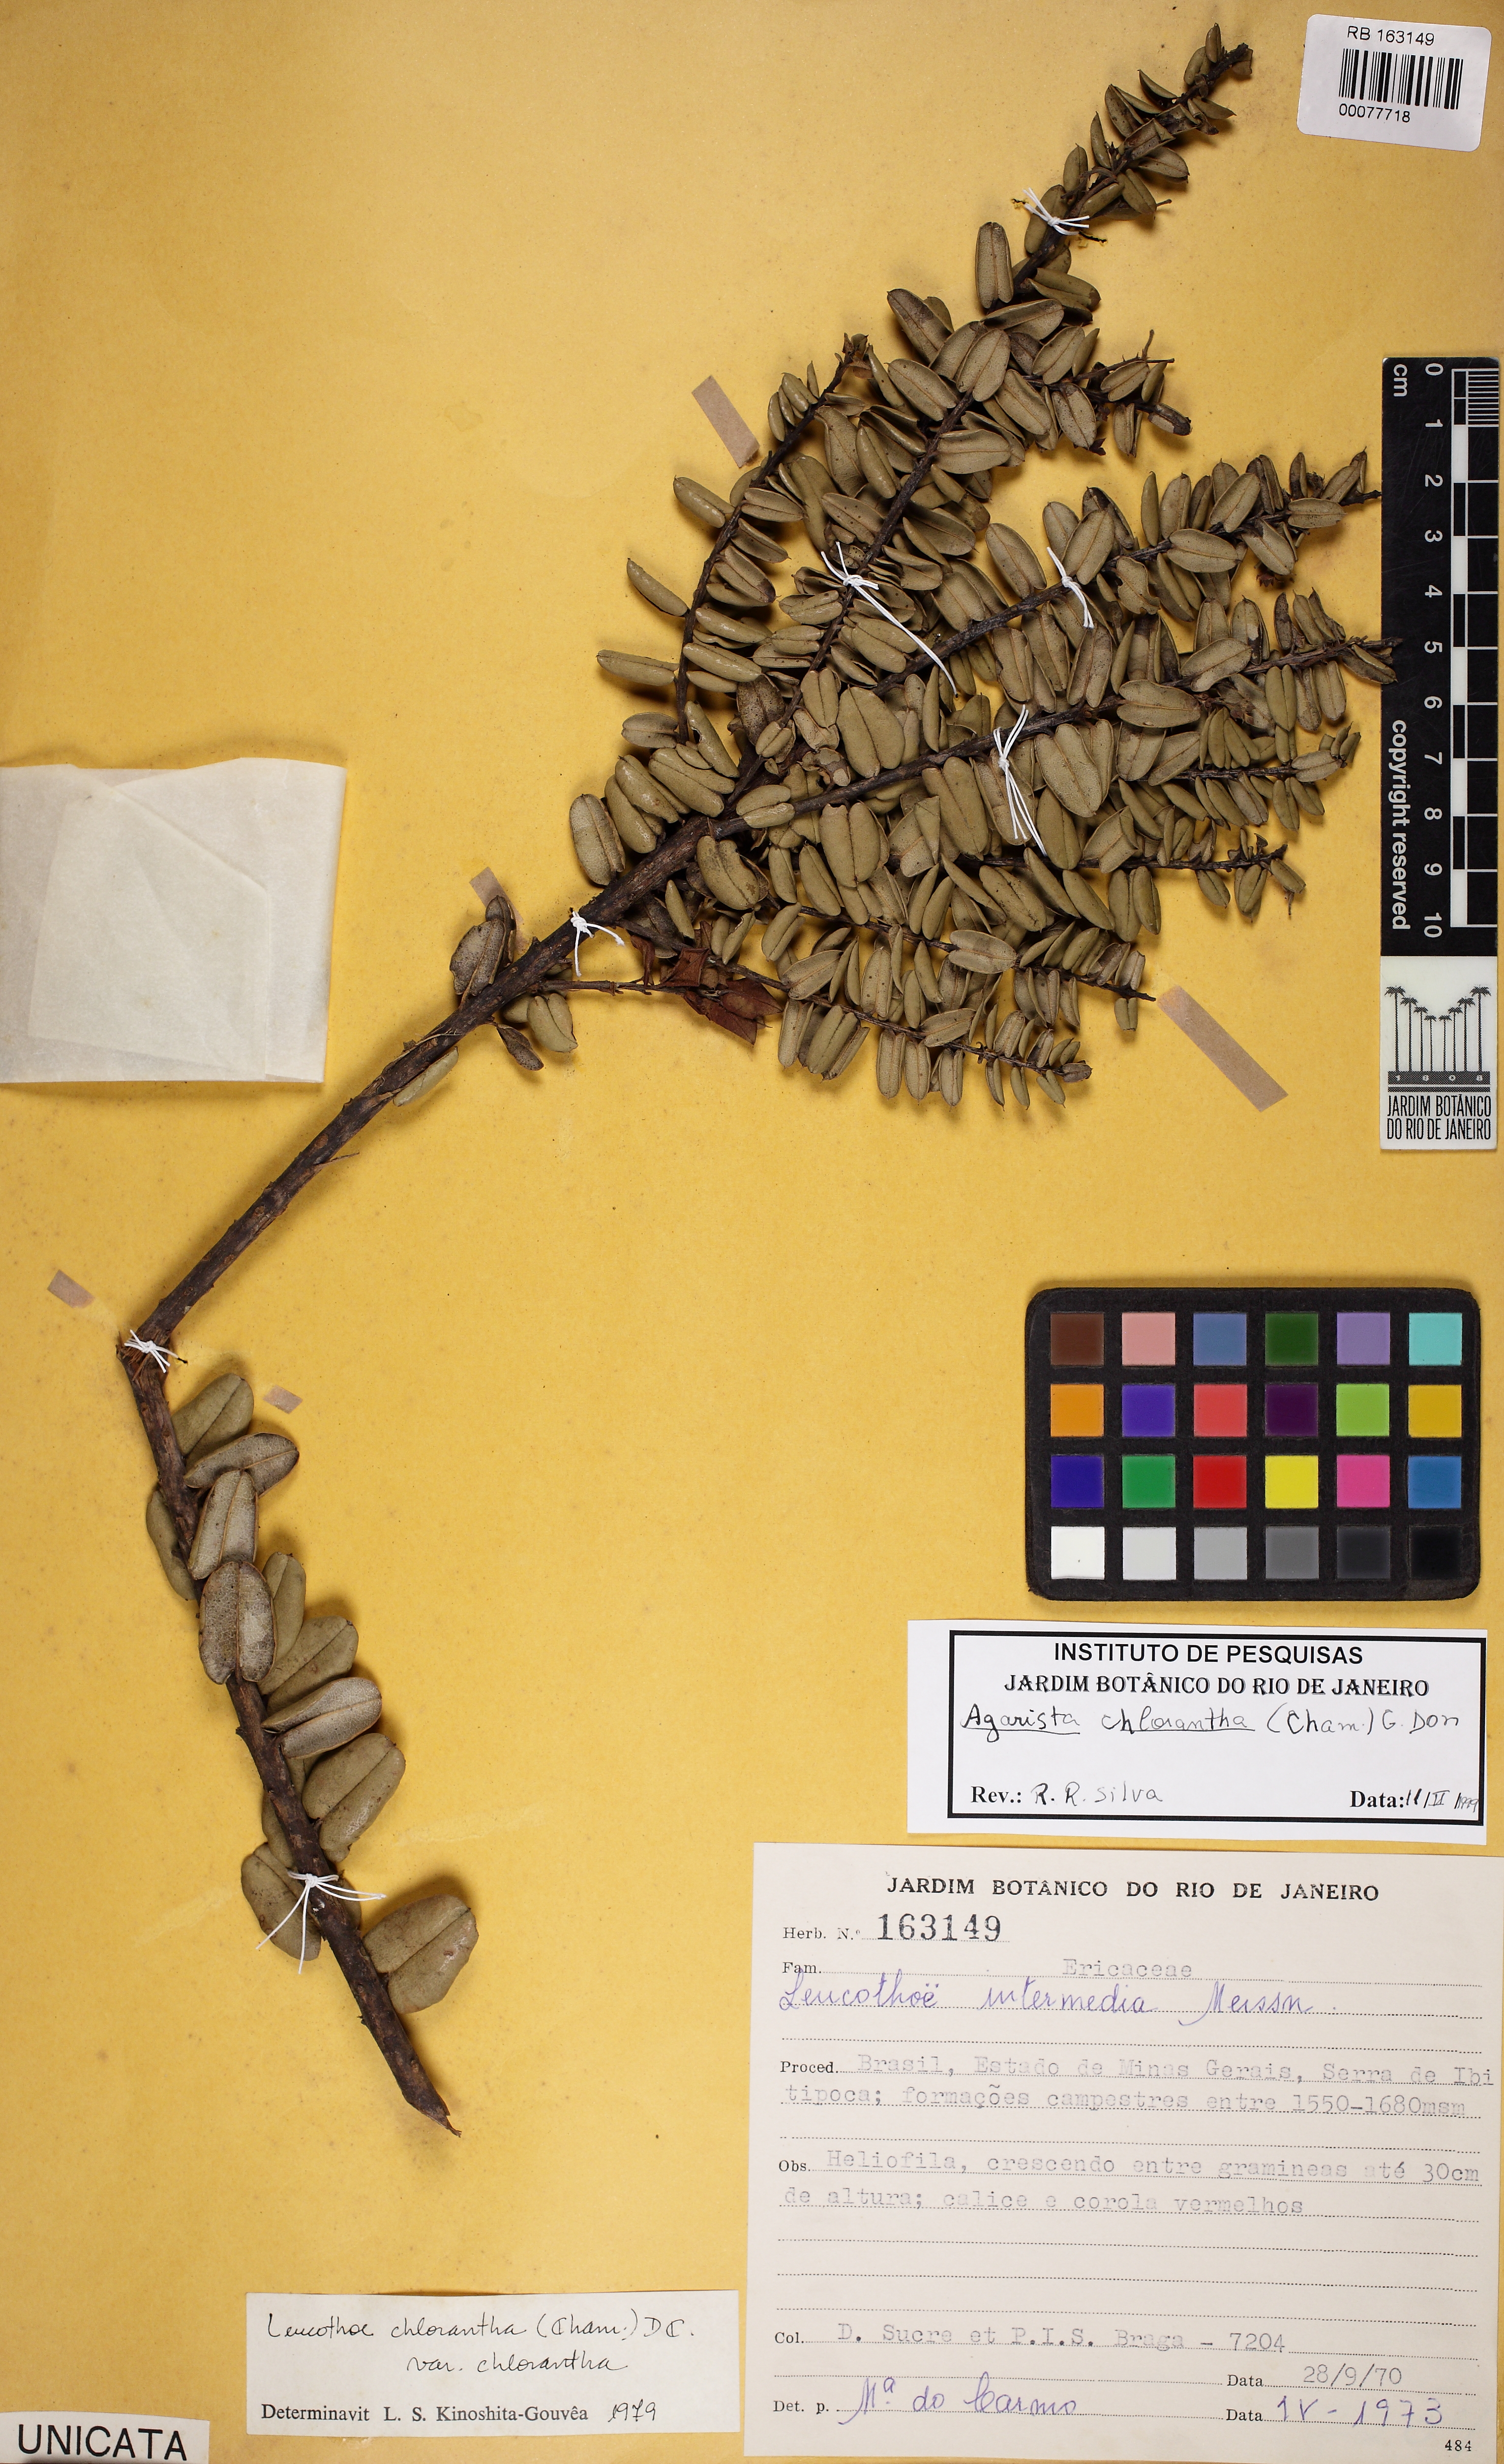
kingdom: Plantae
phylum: Tracheophyta
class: Magnoliopsida
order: Ericales
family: Ericaceae
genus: Agarista
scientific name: Agarista pulchella
